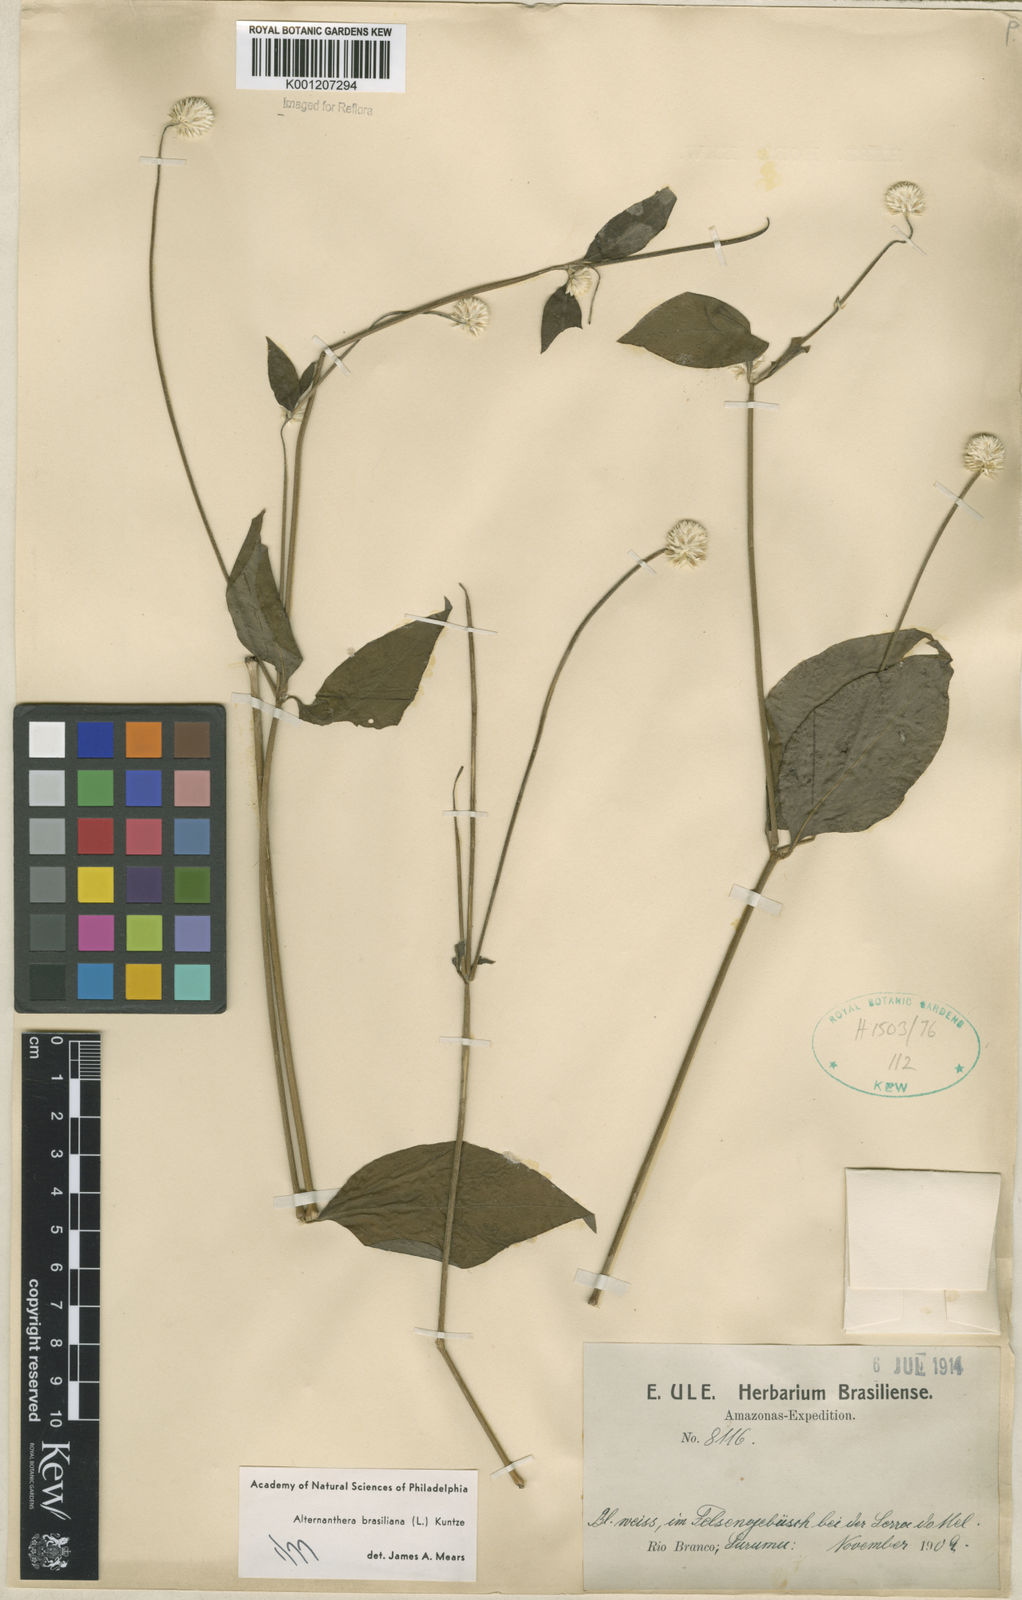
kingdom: Plantae
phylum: Tracheophyta
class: Magnoliopsida
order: Caryophyllales
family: Amaranthaceae
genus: Alternanthera
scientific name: Alternanthera brasiliana
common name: Brazilian joyweed
